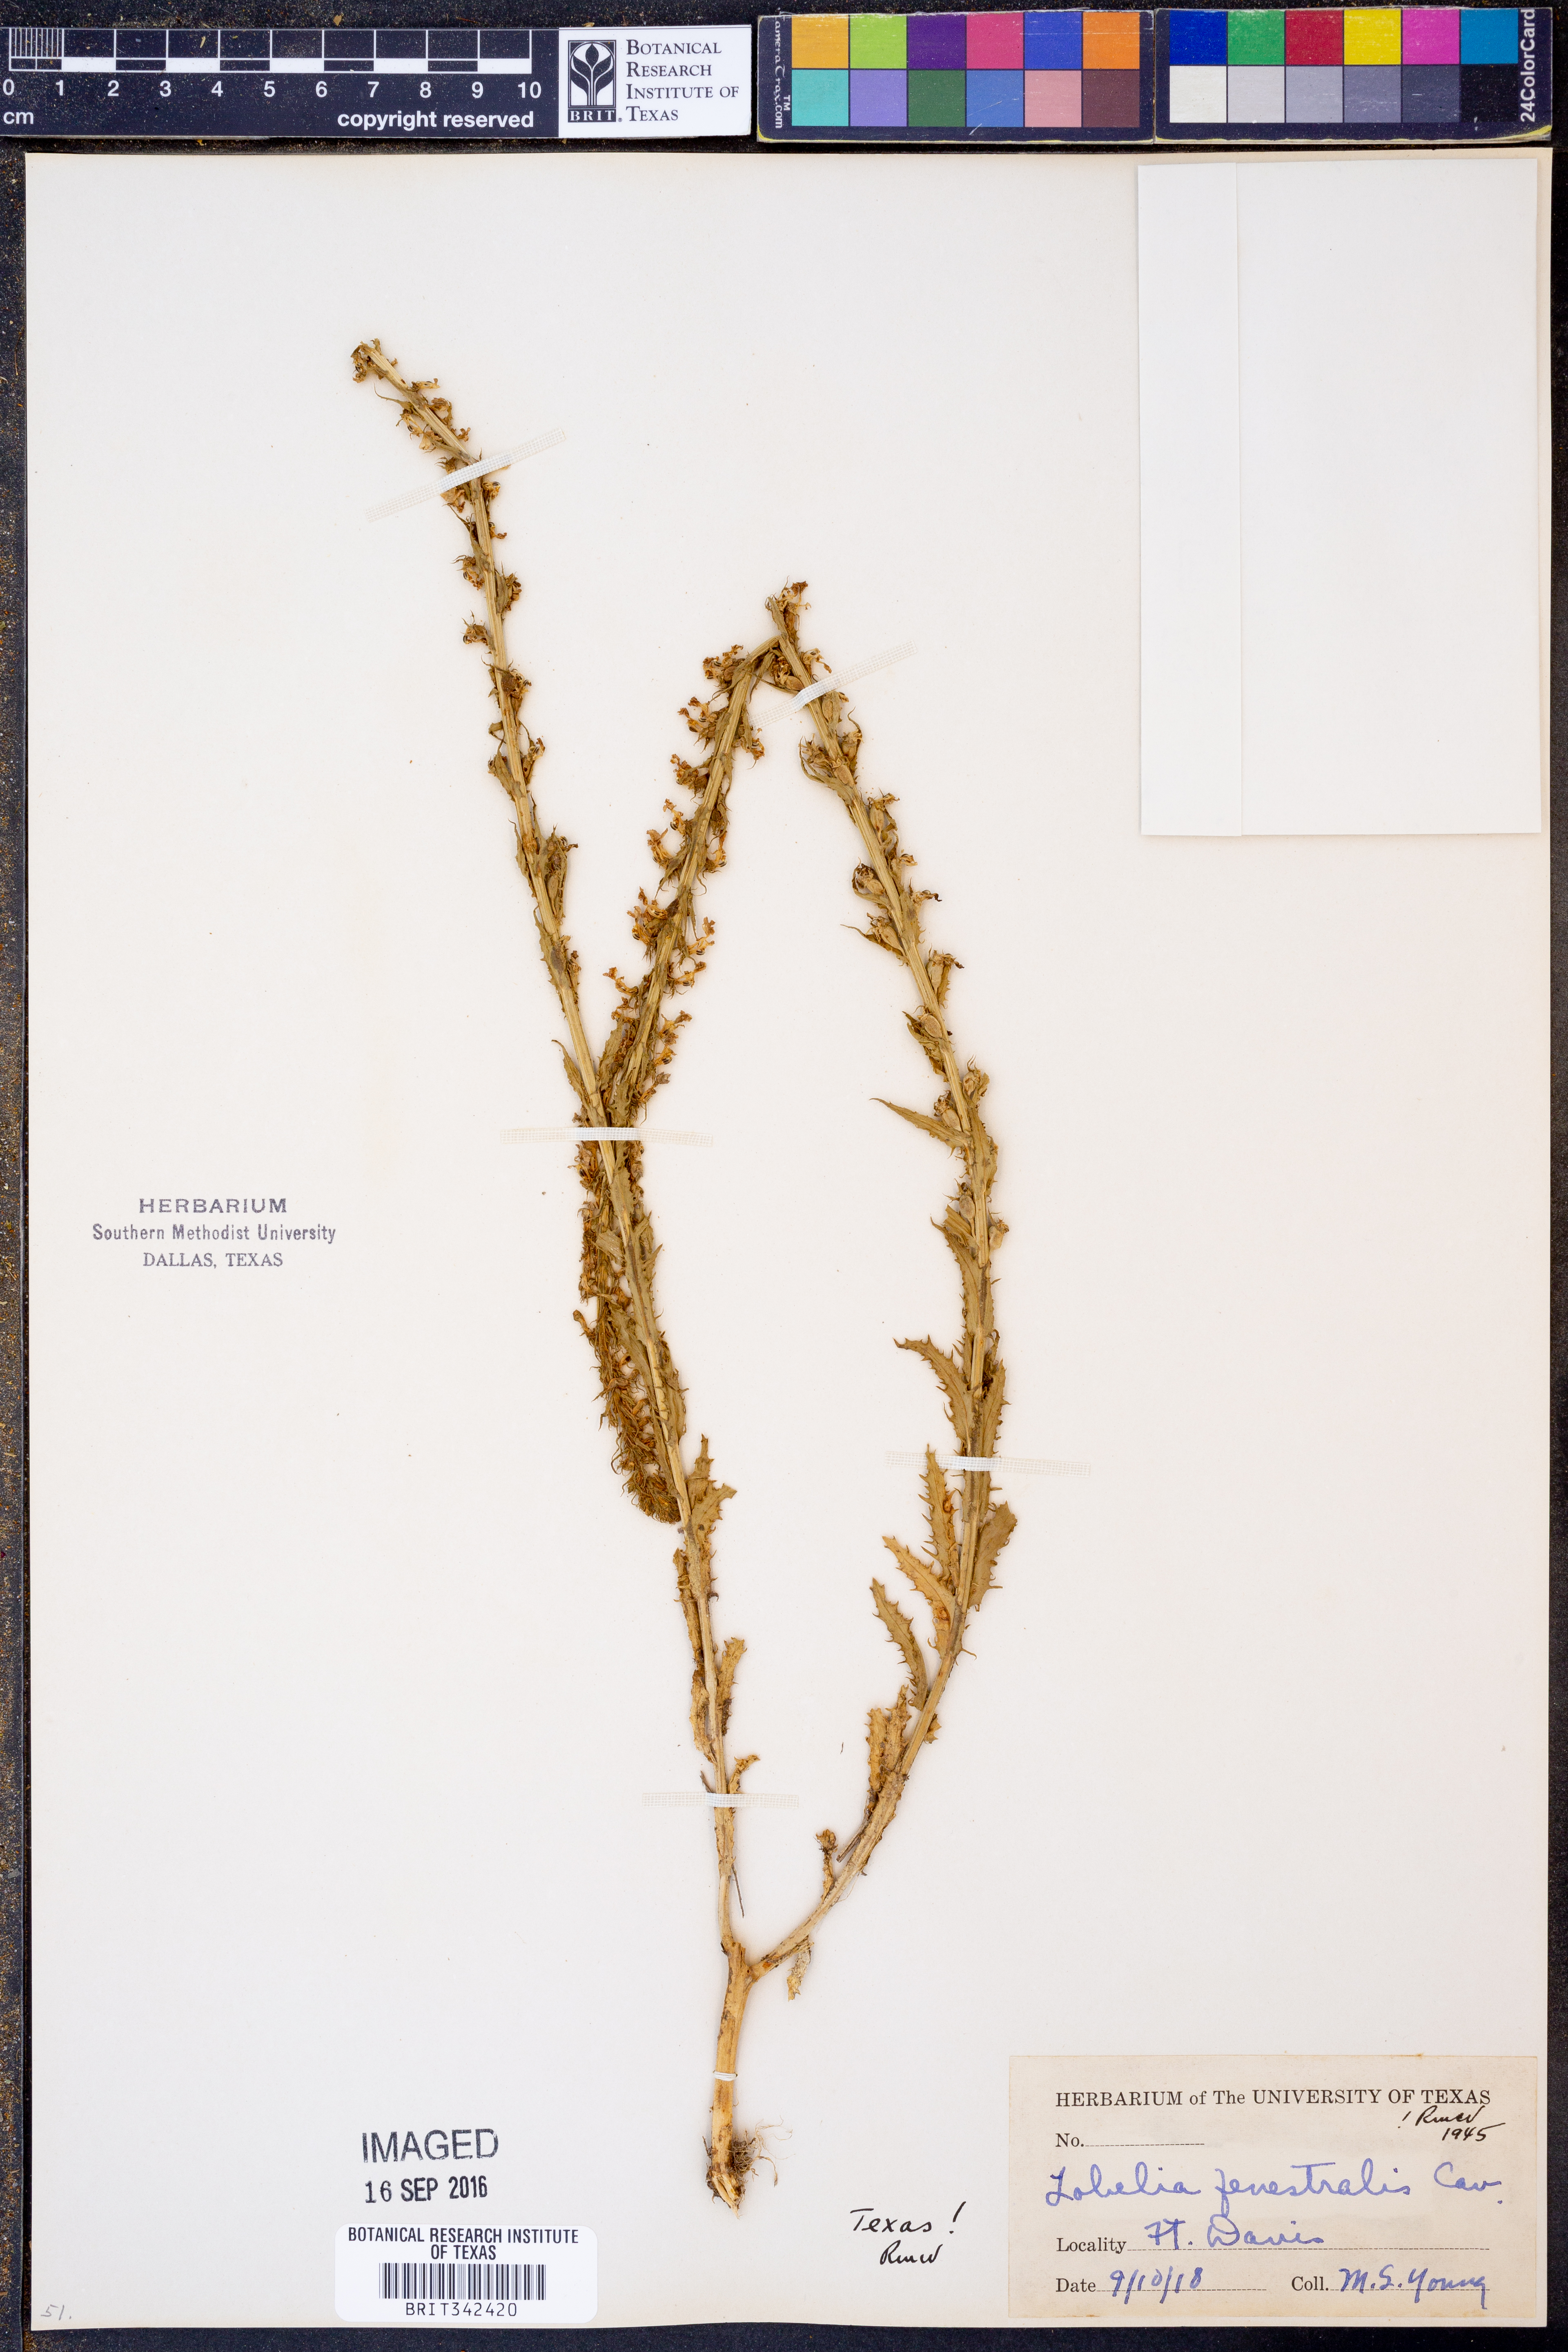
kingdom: Plantae
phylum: Tracheophyta
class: Magnoliopsida
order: Asterales
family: Campanulaceae
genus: Lobelia
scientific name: Lobelia fenestralis
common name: Leafy lobelia
